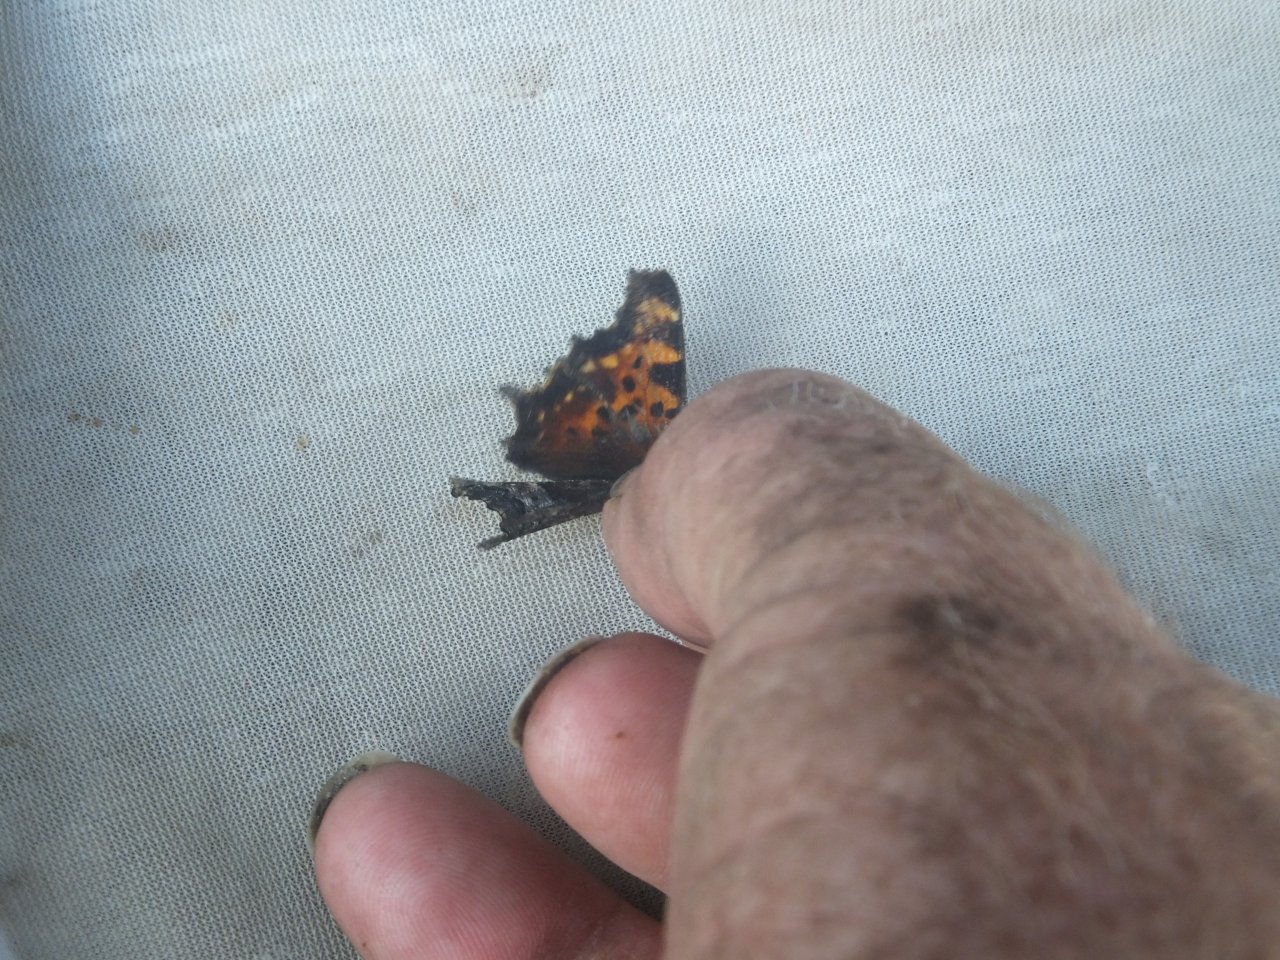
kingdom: Animalia
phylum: Arthropoda
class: Insecta
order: Lepidoptera
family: Nymphalidae
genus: Polygonia
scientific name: Polygonia faunus
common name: Green Comma
